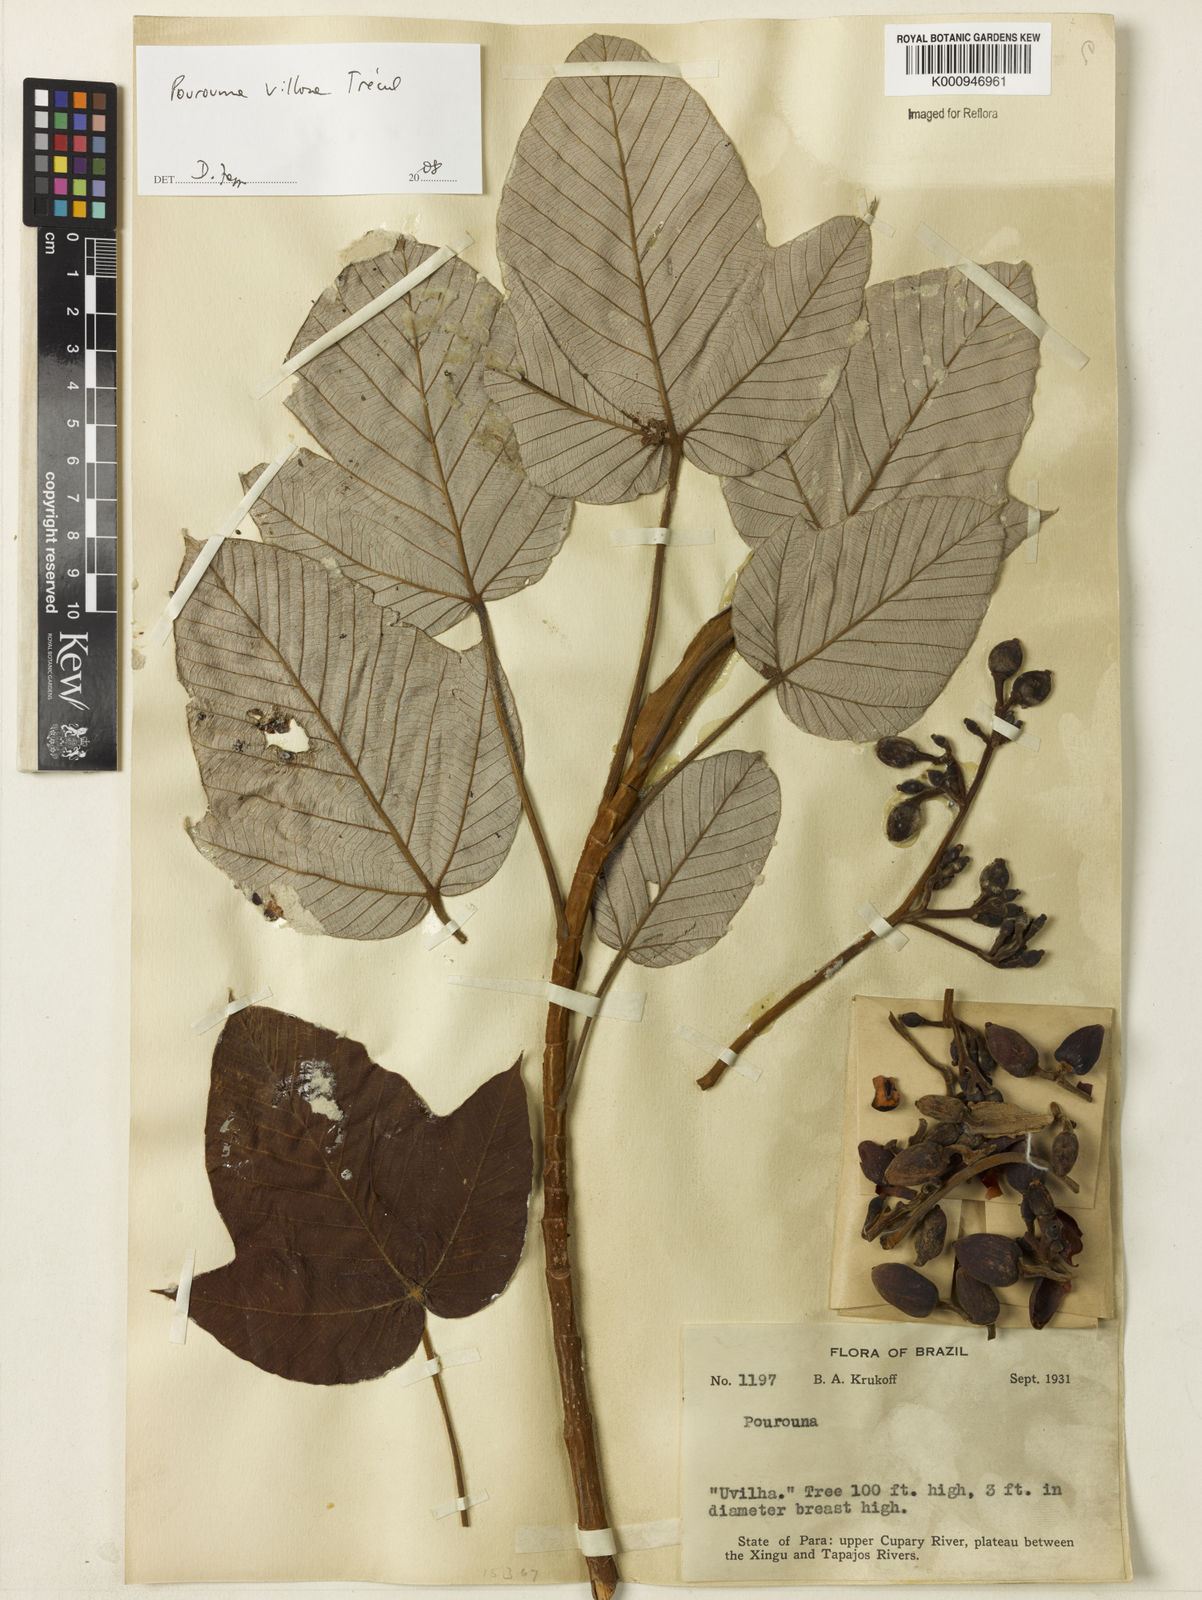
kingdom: Plantae
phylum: Tracheophyta
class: Magnoliopsida
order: Rosales
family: Urticaceae
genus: Pourouma
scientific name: Pourouma
